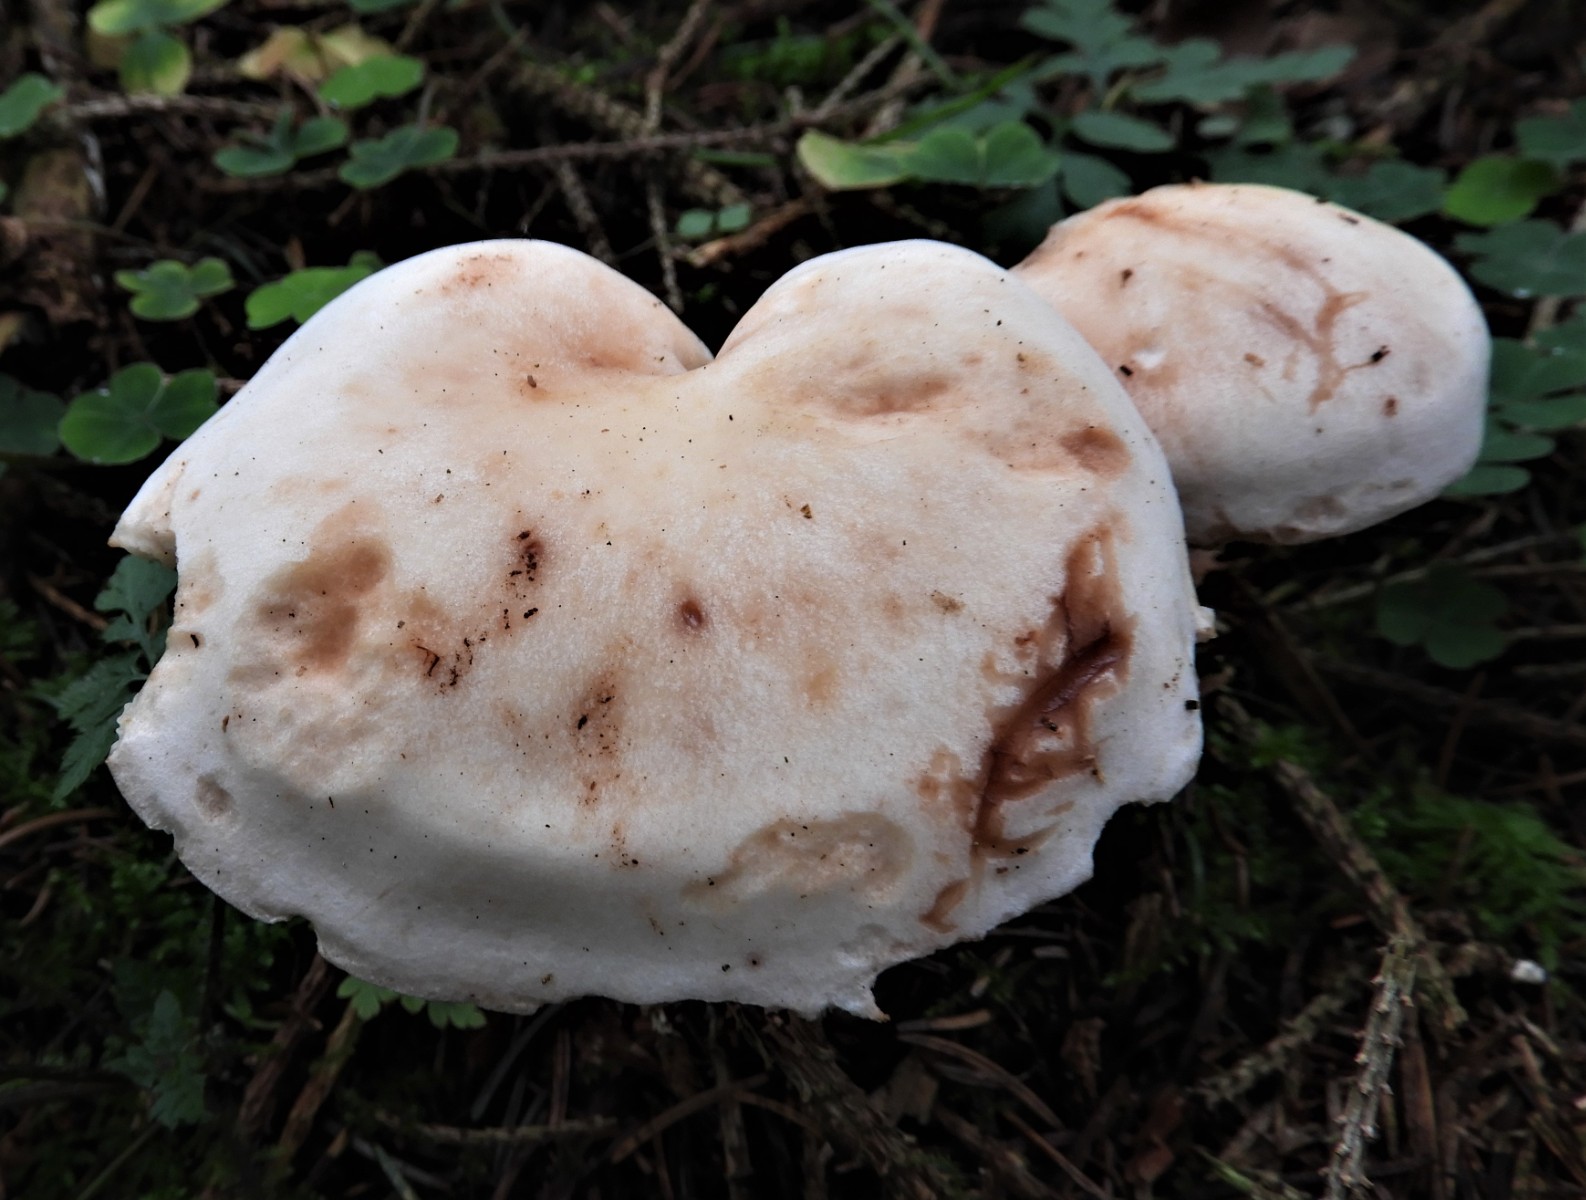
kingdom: Fungi
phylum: Basidiomycota
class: Agaricomycetes
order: Agaricales
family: Omphalotaceae
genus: Rhodocollybia
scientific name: Rhodocollybia maculata
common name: plettet fladhat
